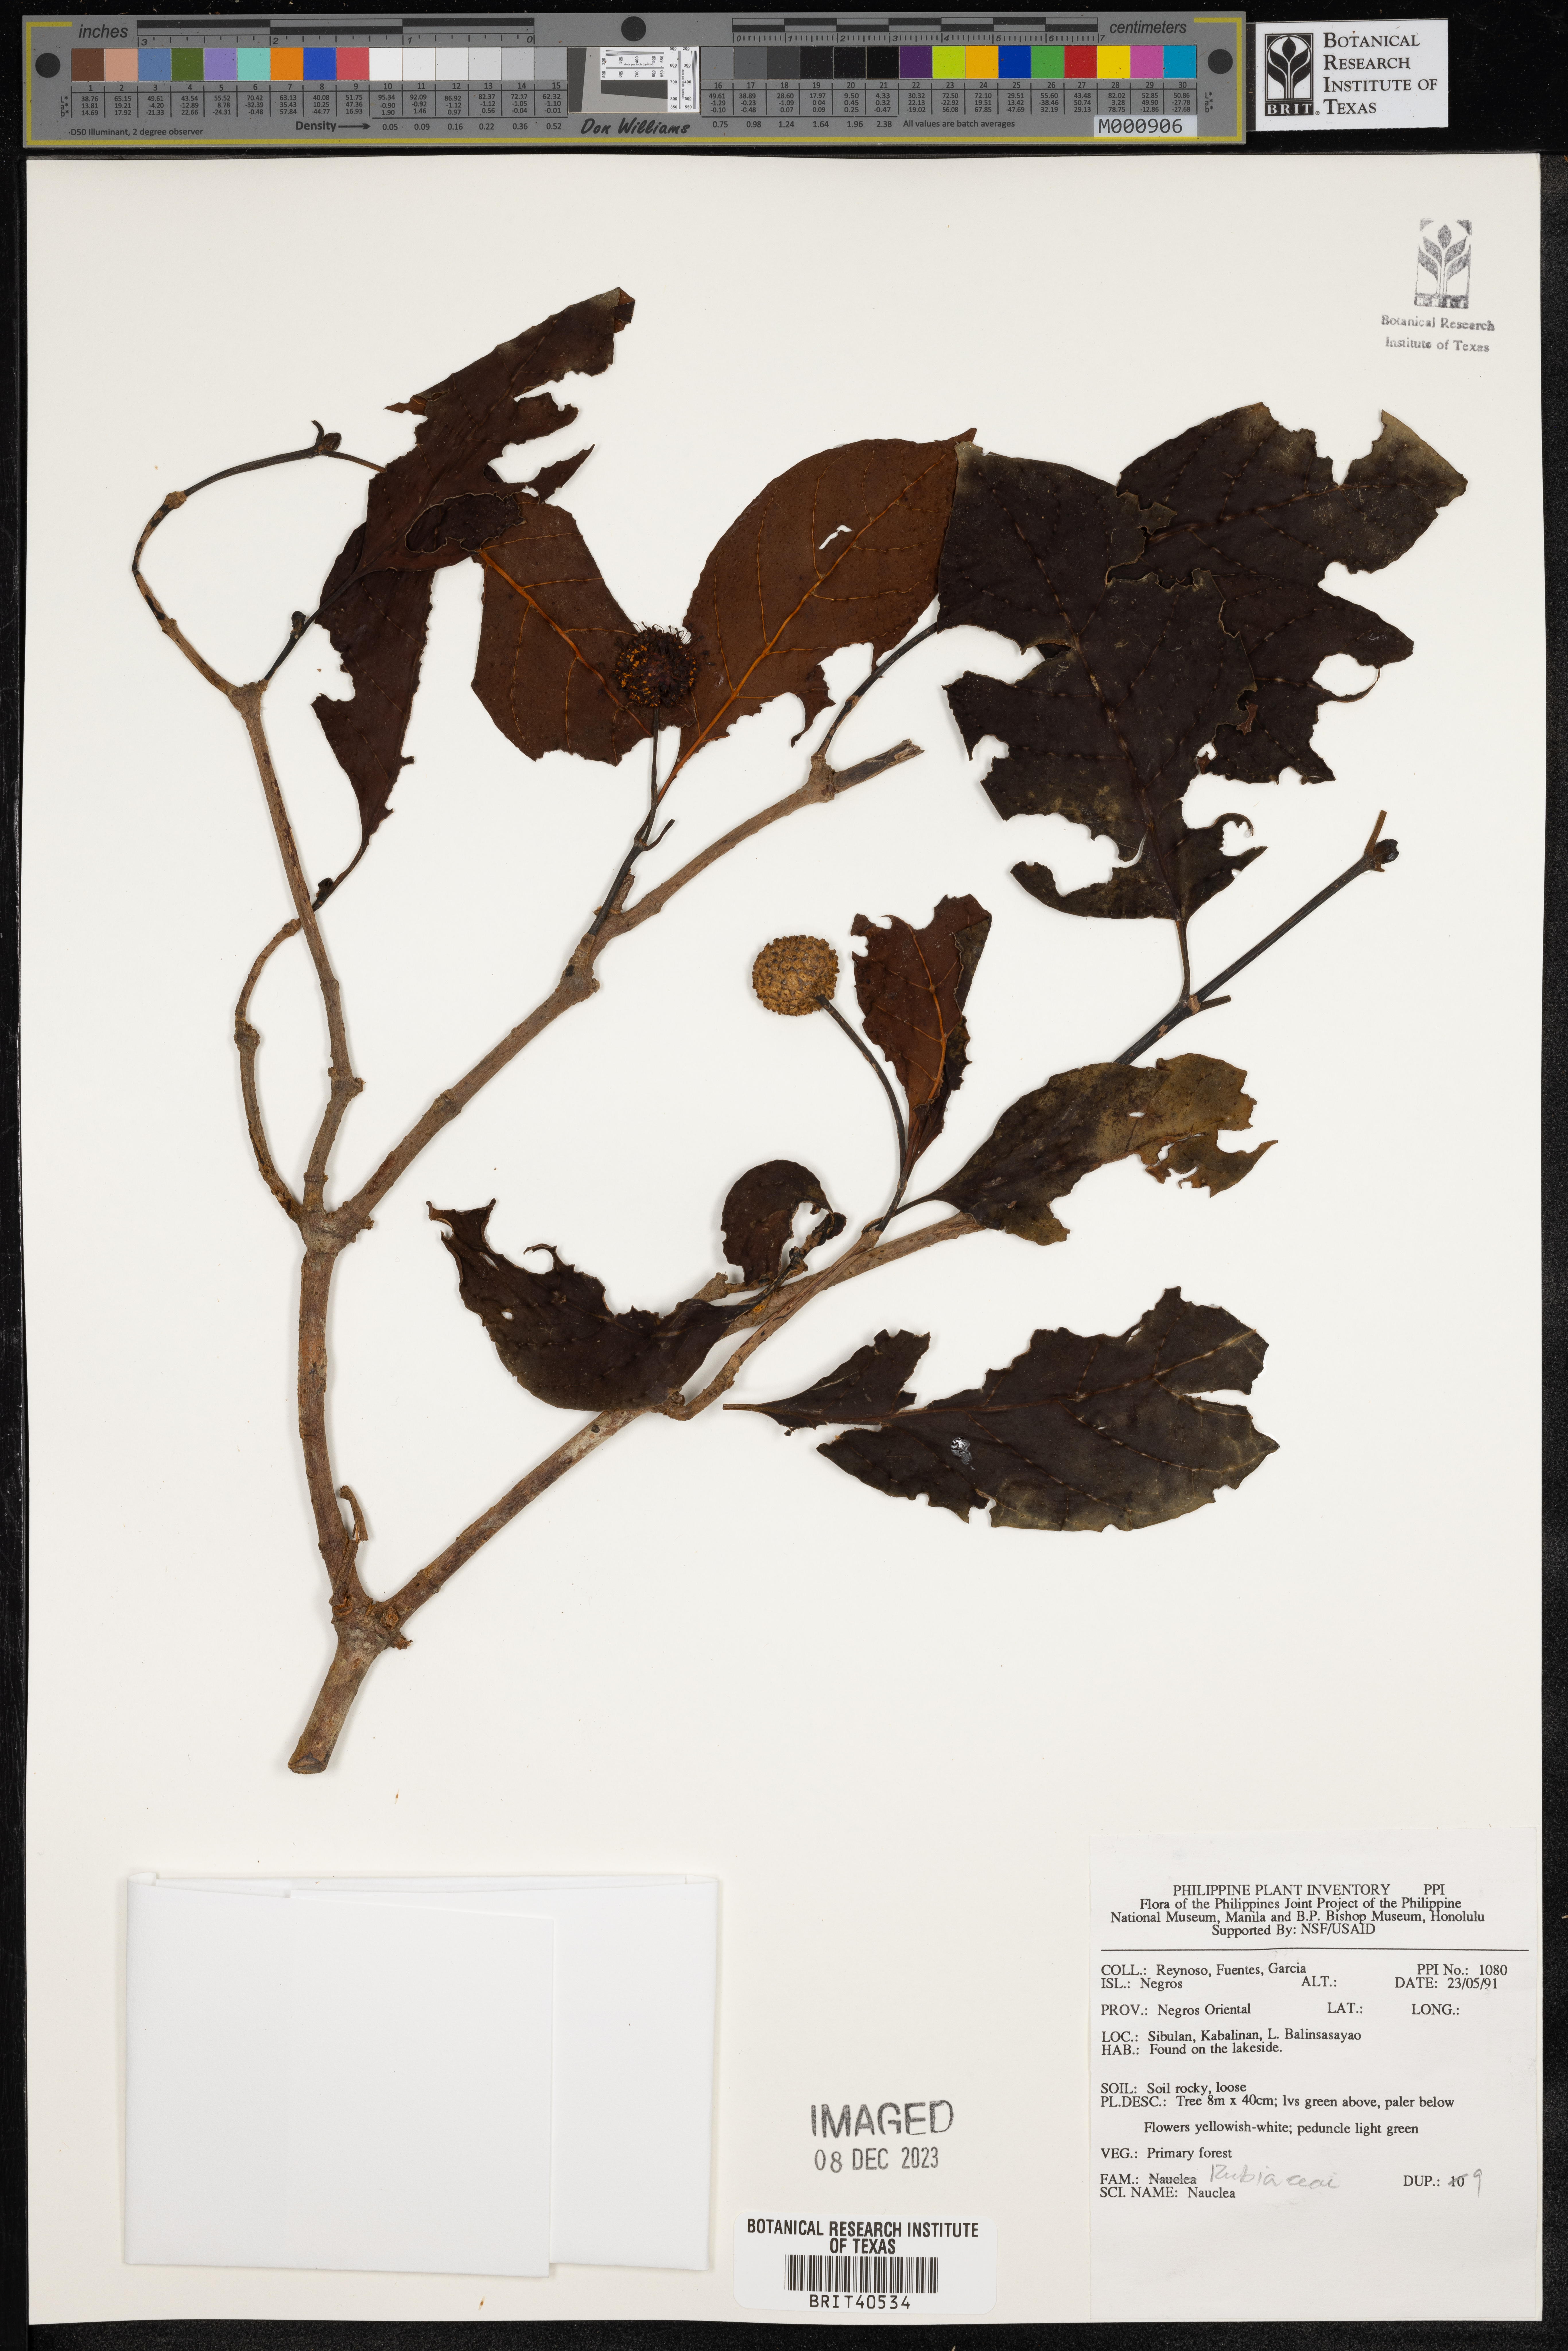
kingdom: Plantae
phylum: Tracheophyta
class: Magnoliopsida
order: Gentianales
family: Rubiaceae
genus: Nauclea
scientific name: Nauclea
